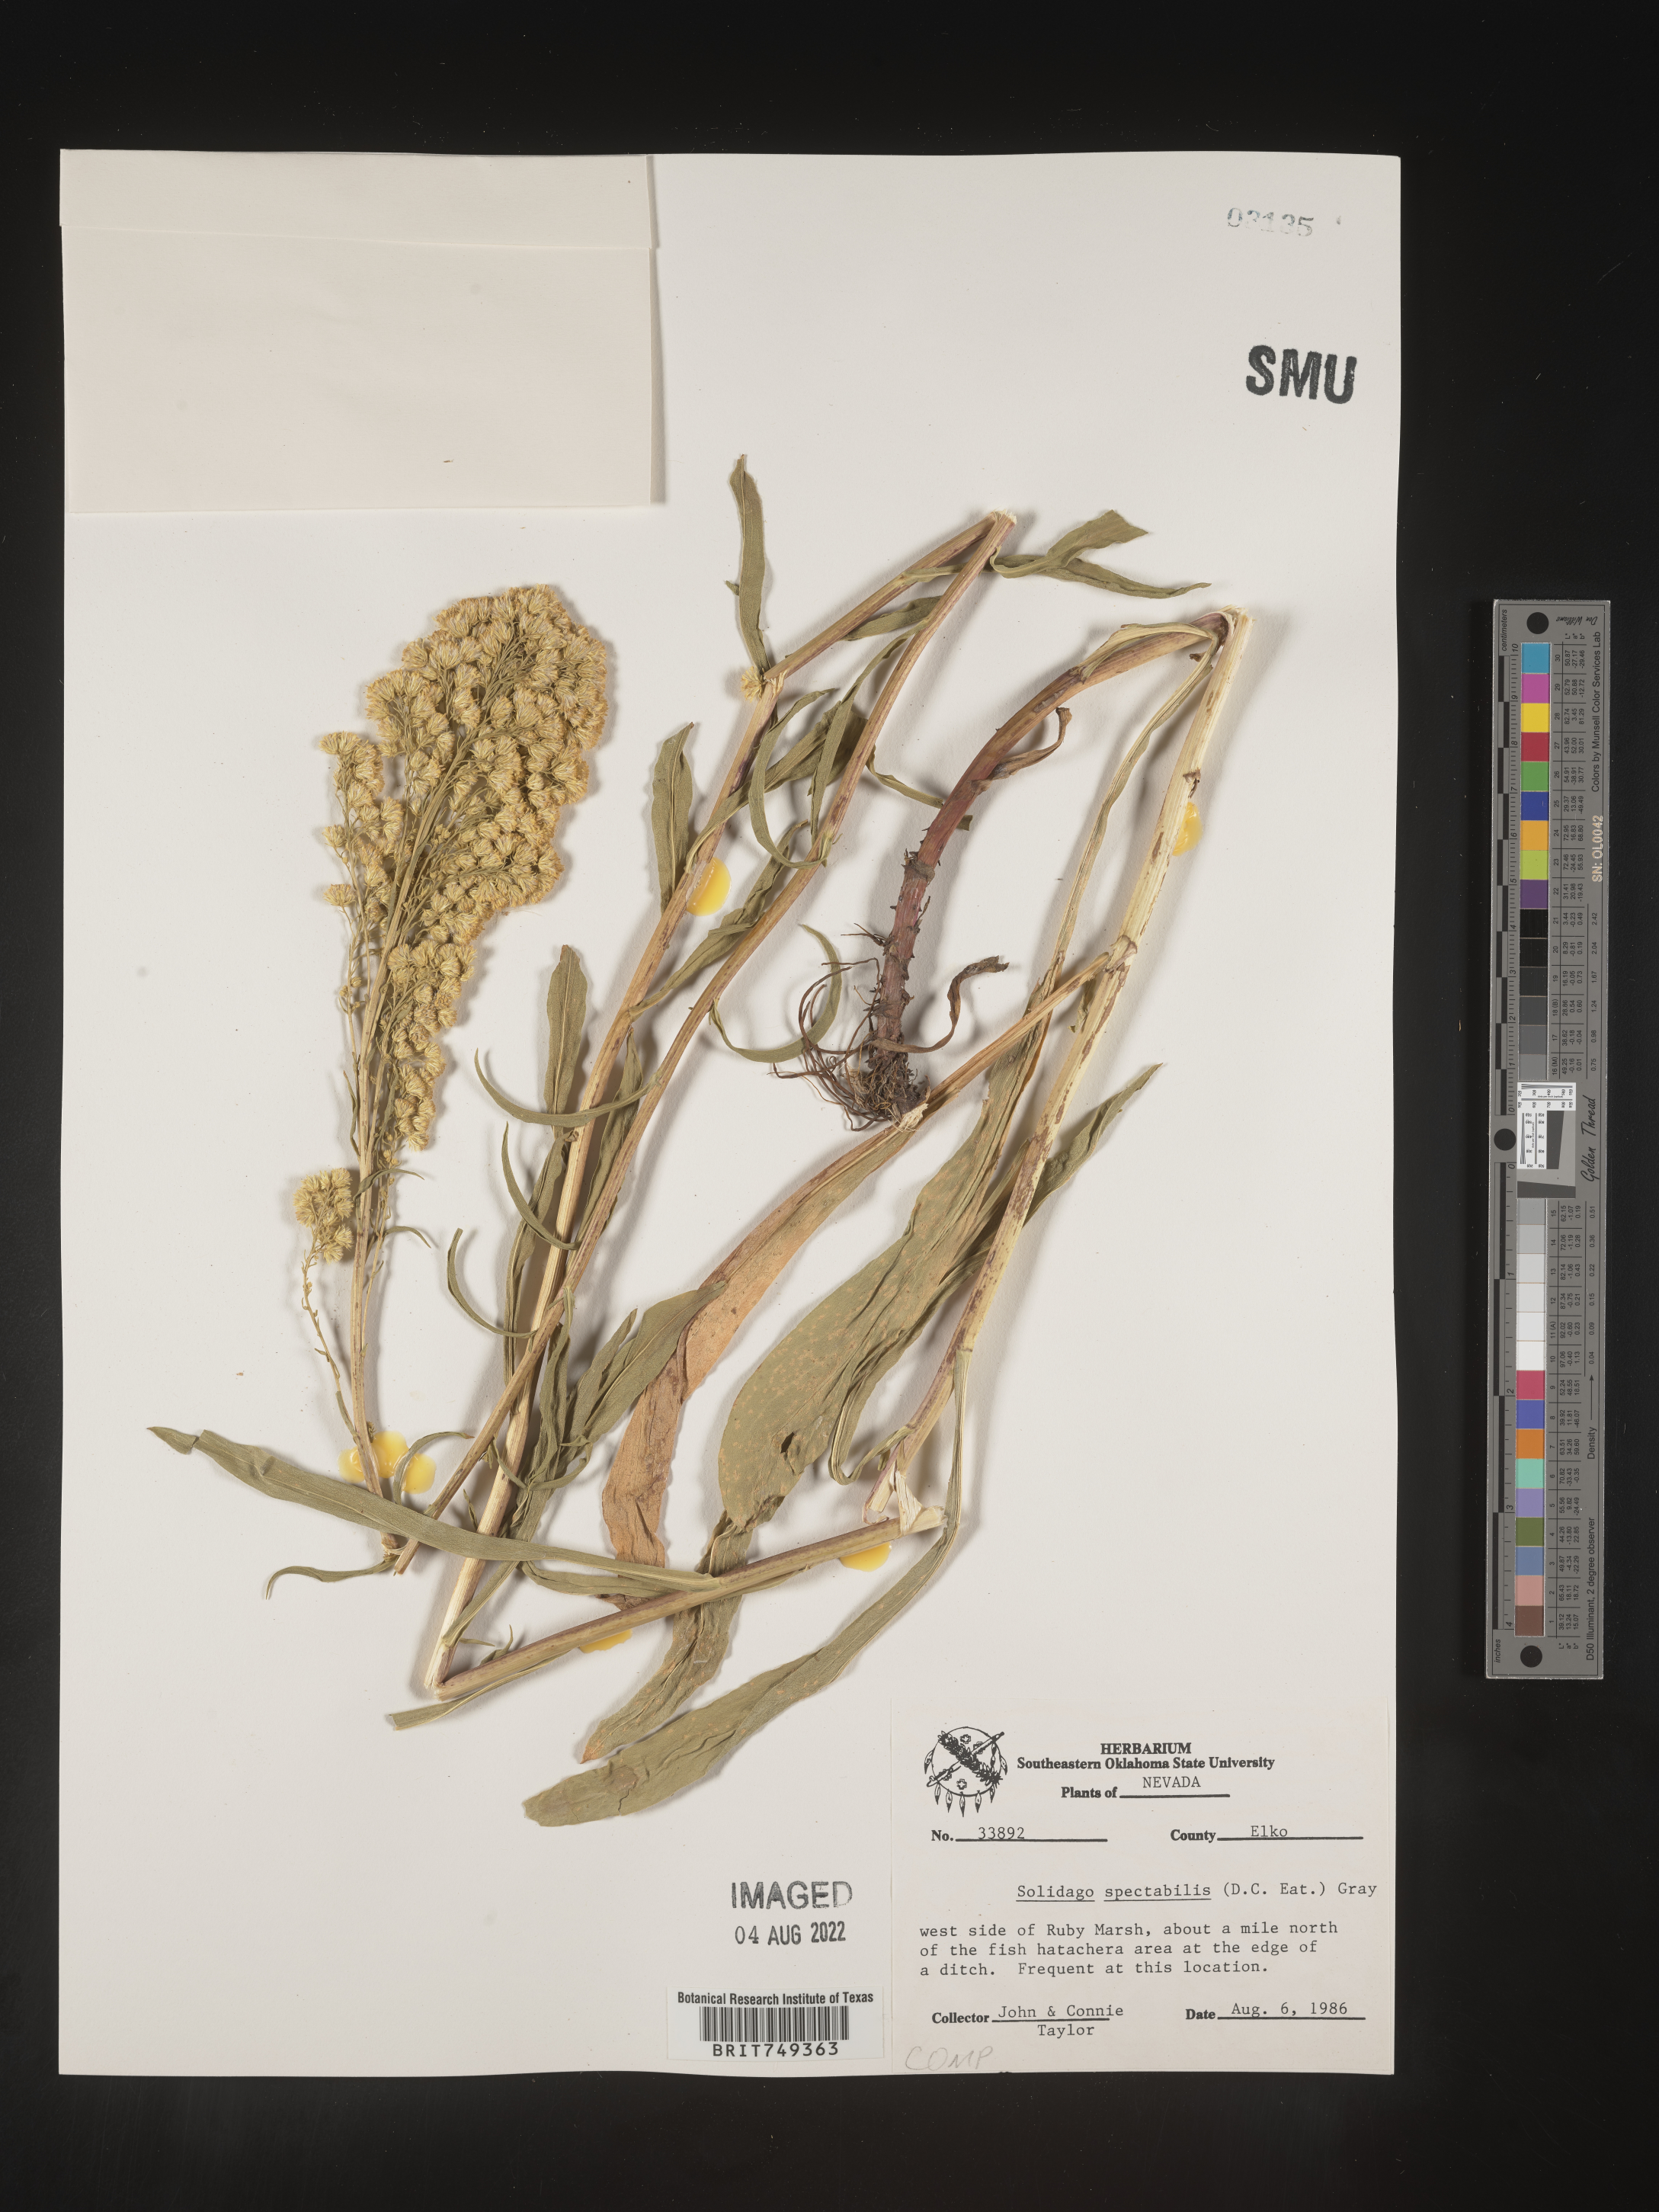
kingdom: Plantae
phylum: Tracheophyta
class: Magnoliopsida
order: Asterales
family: Asteraceae
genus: Solidago
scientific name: Solidago spectabilis
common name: Basin goldenrod
